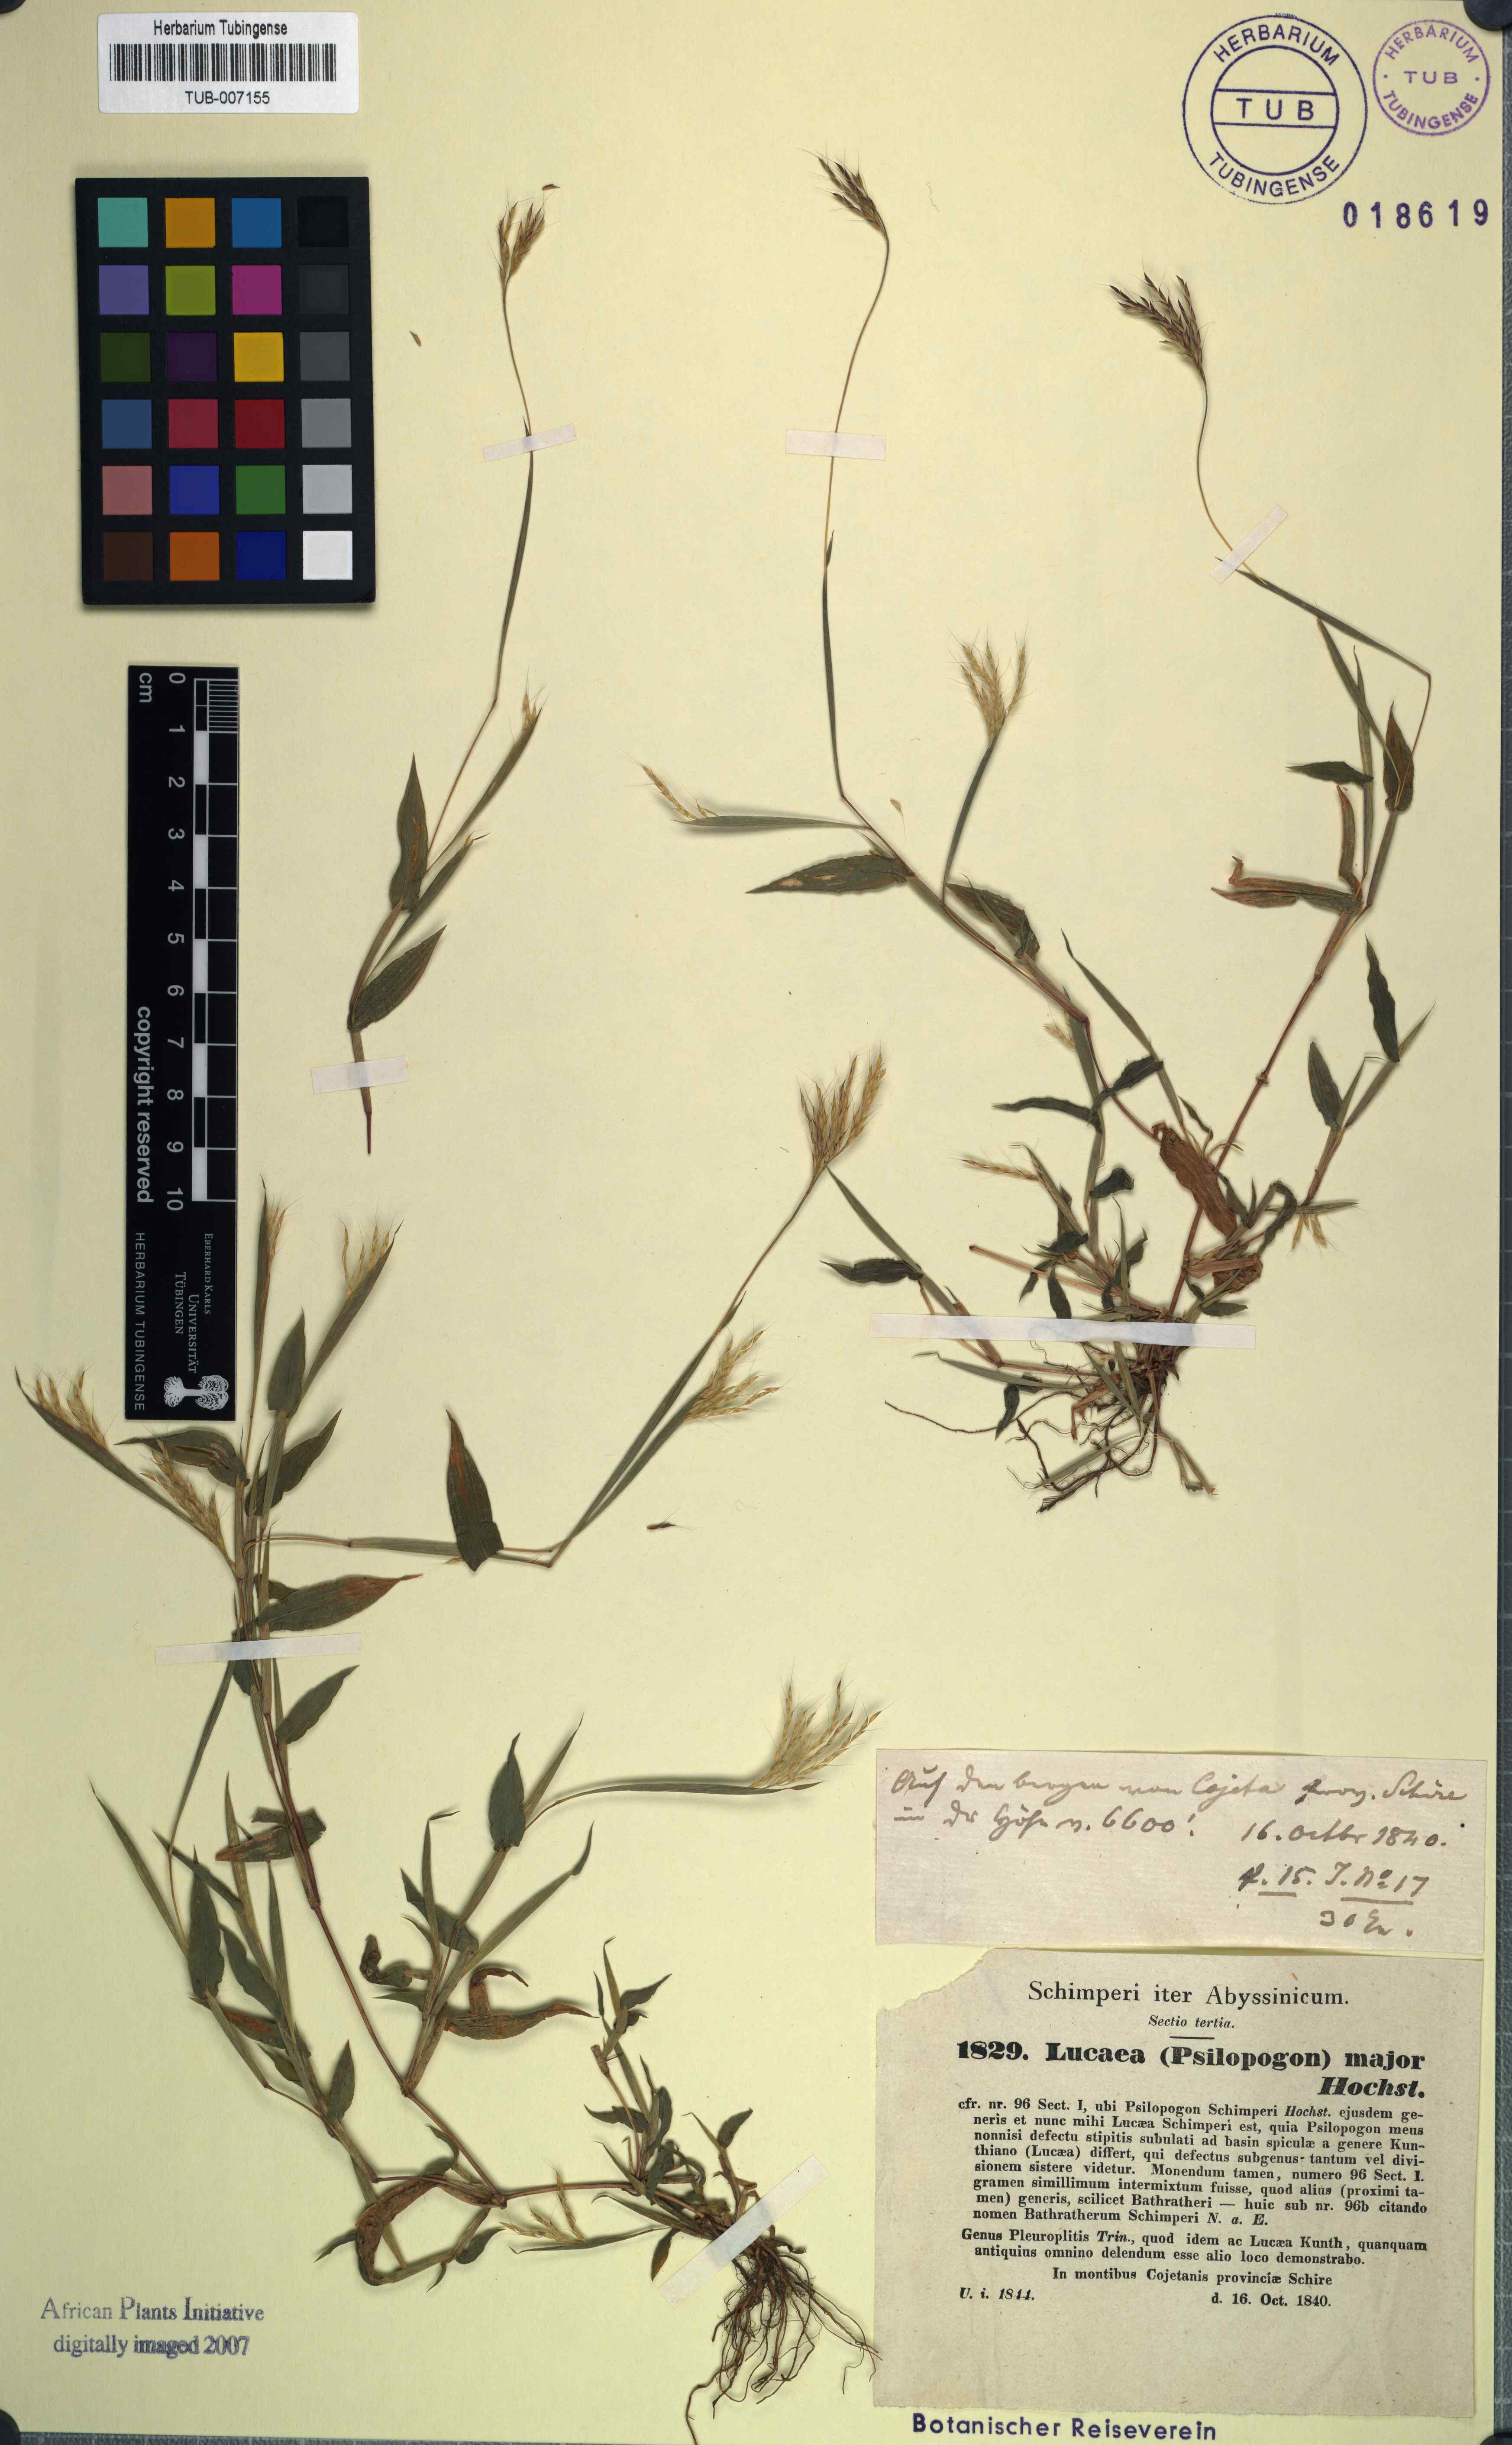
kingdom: Plantae
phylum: Tracheophyta
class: Liliopsida
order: Poales
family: Poaceae
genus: Arthraxon
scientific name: Arthraxon hispidus
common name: Small carpgrass
